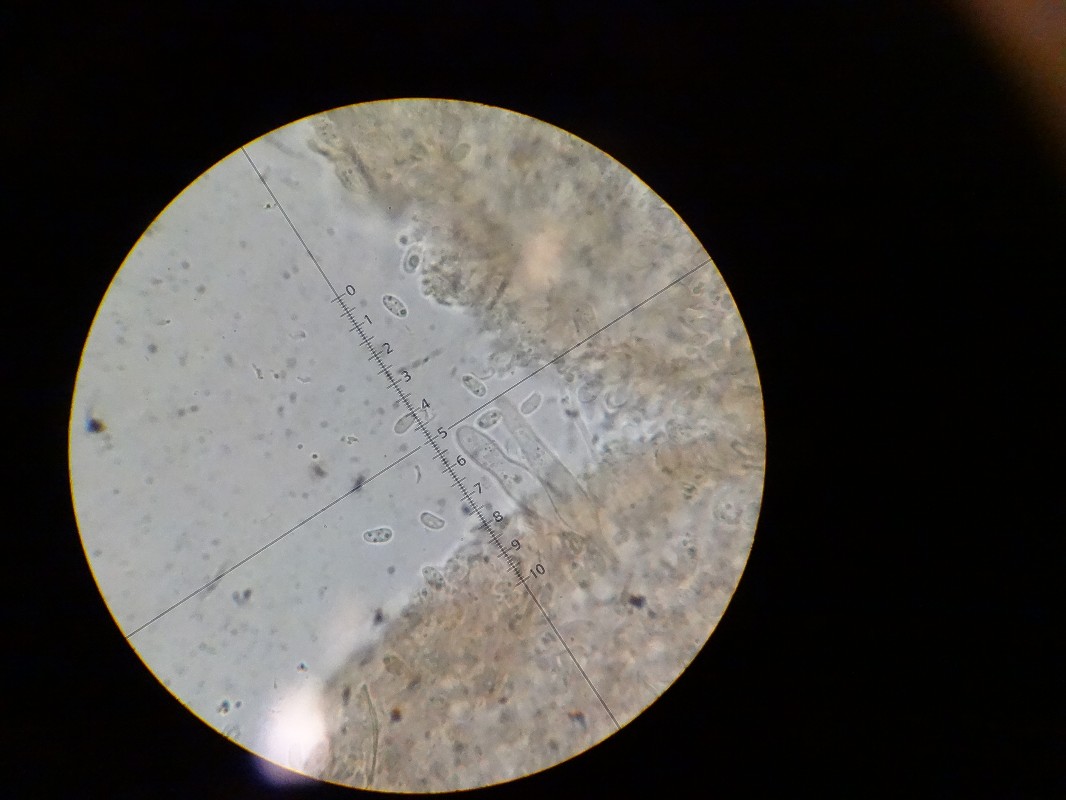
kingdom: Fungi
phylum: Basidiomycota
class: Agaricomycetes
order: Agaricales
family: Physalacriaceae
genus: Flammulina
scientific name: Flammulina elastica
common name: pile-fløjlsfod
